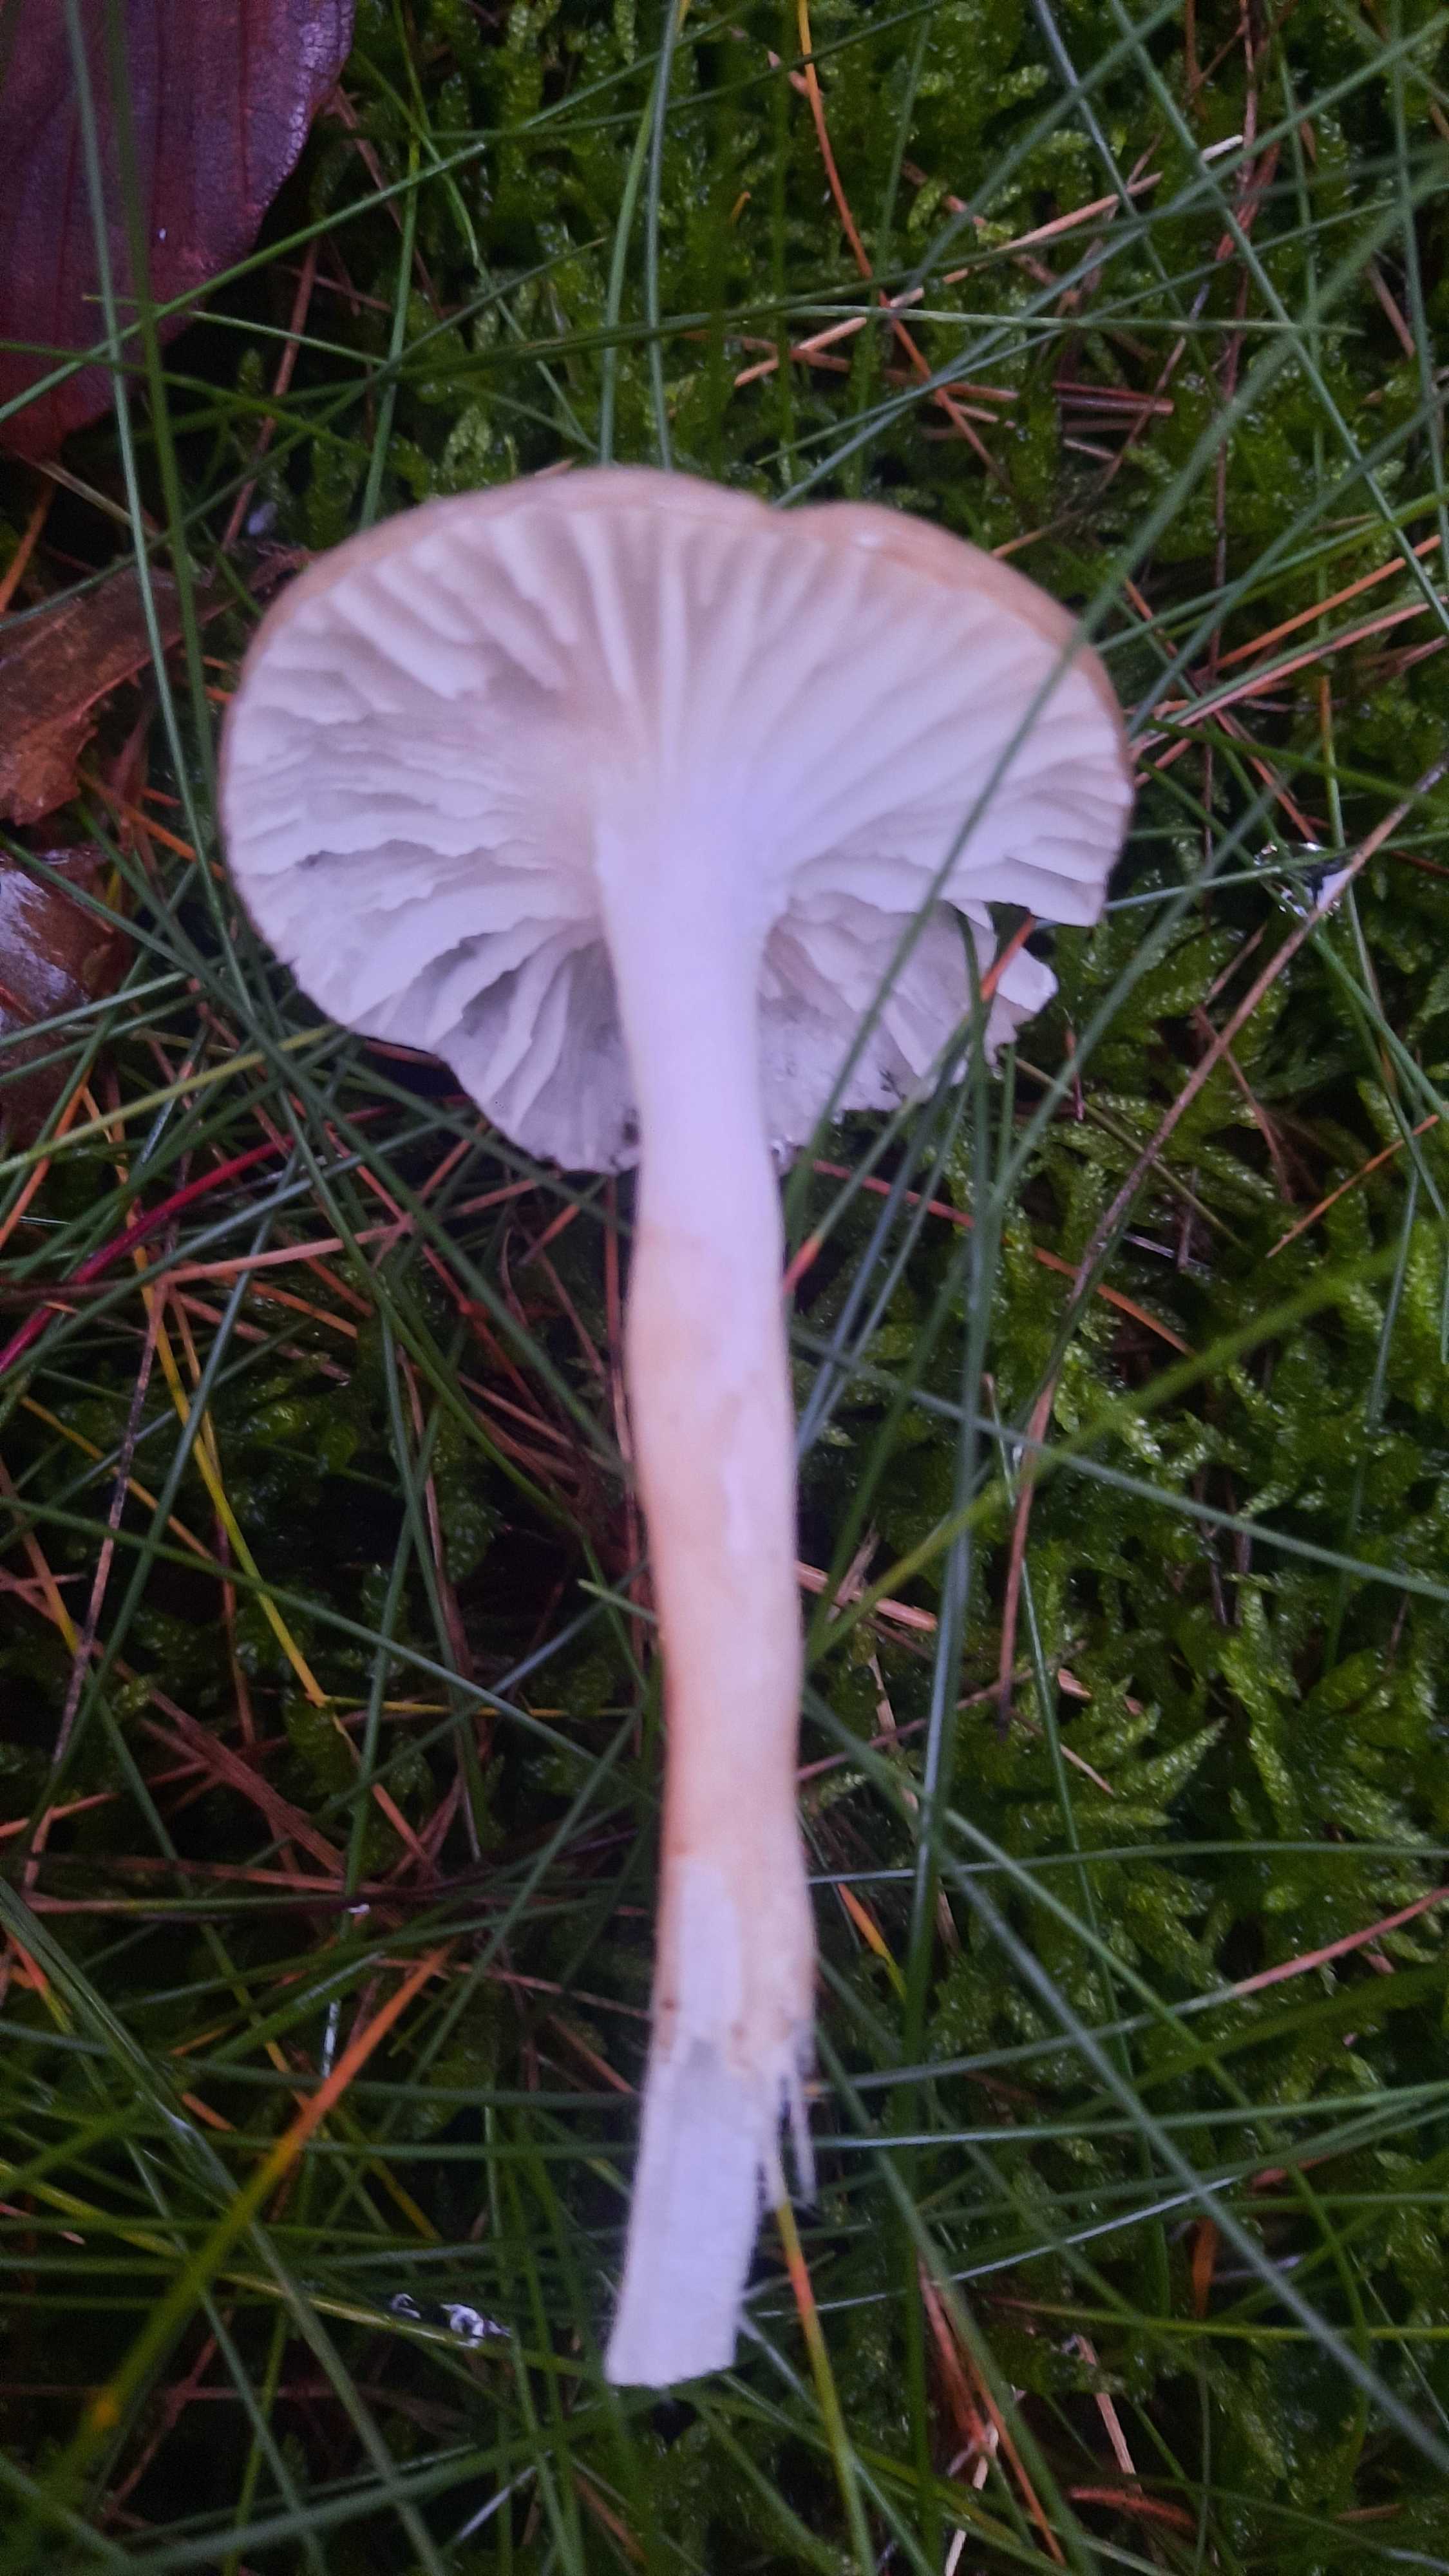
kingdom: Fungi
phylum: Basidiomycota
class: Agaricomycetes
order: Agaricales
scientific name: Agaricales
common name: champignonordenen
